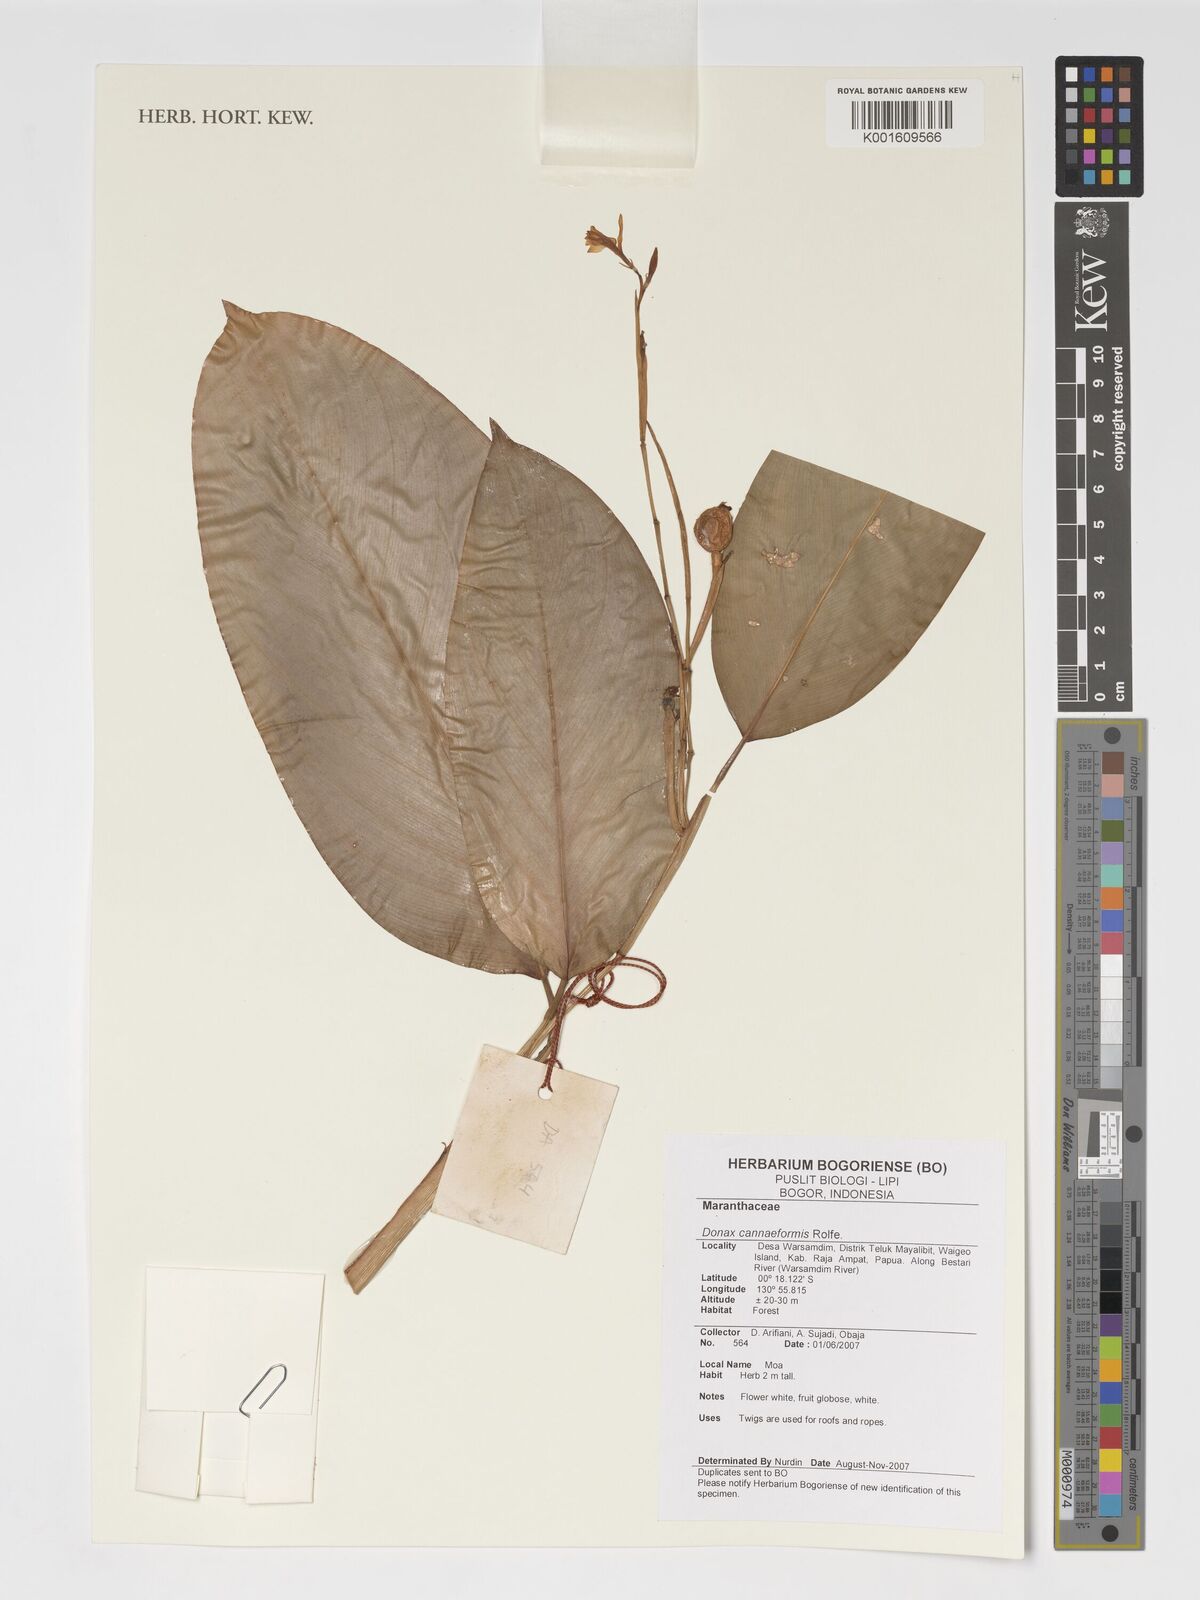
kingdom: Plantae
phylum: Tracheophyta
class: Liliopsida
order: Zingiberales
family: Marantaceae
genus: Donax
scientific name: Donax canniformis
